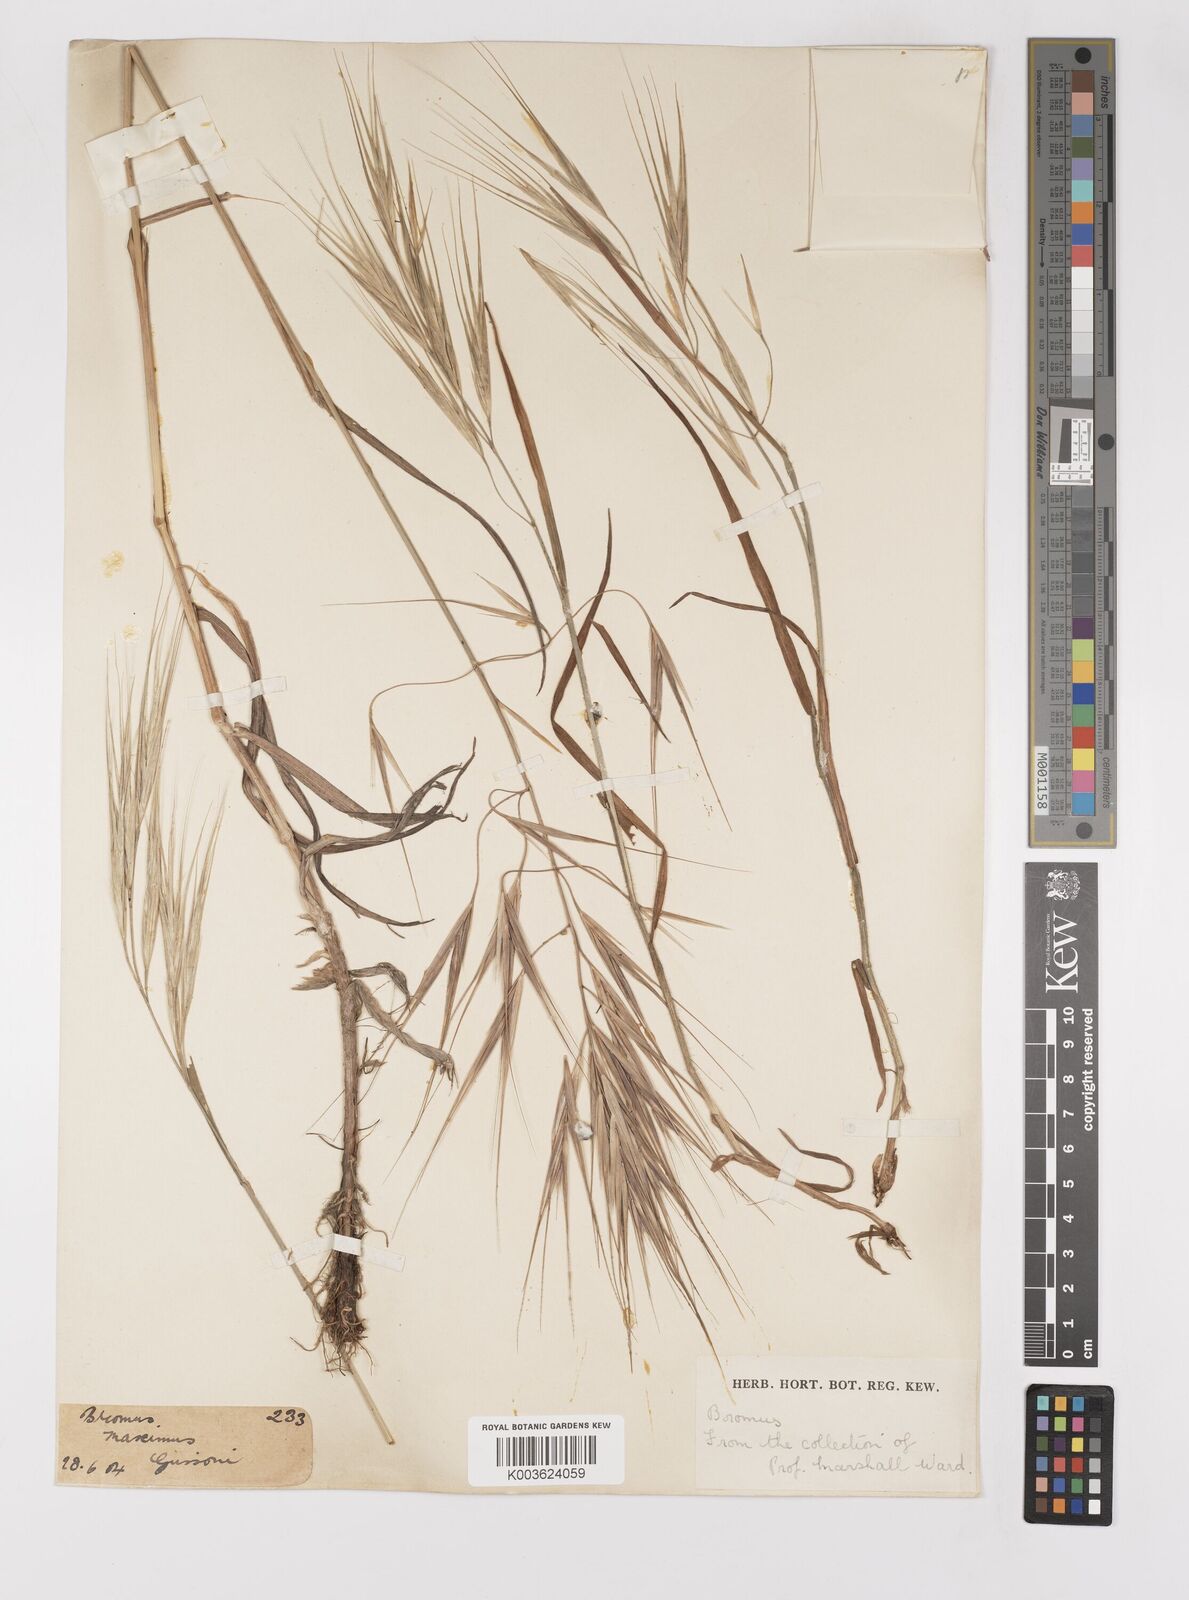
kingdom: Plantae
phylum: Tracheophyta
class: Liliopsida
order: Poales
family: Poaceae
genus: Bromus
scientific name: Bromus diandrus
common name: Ripgut brome
